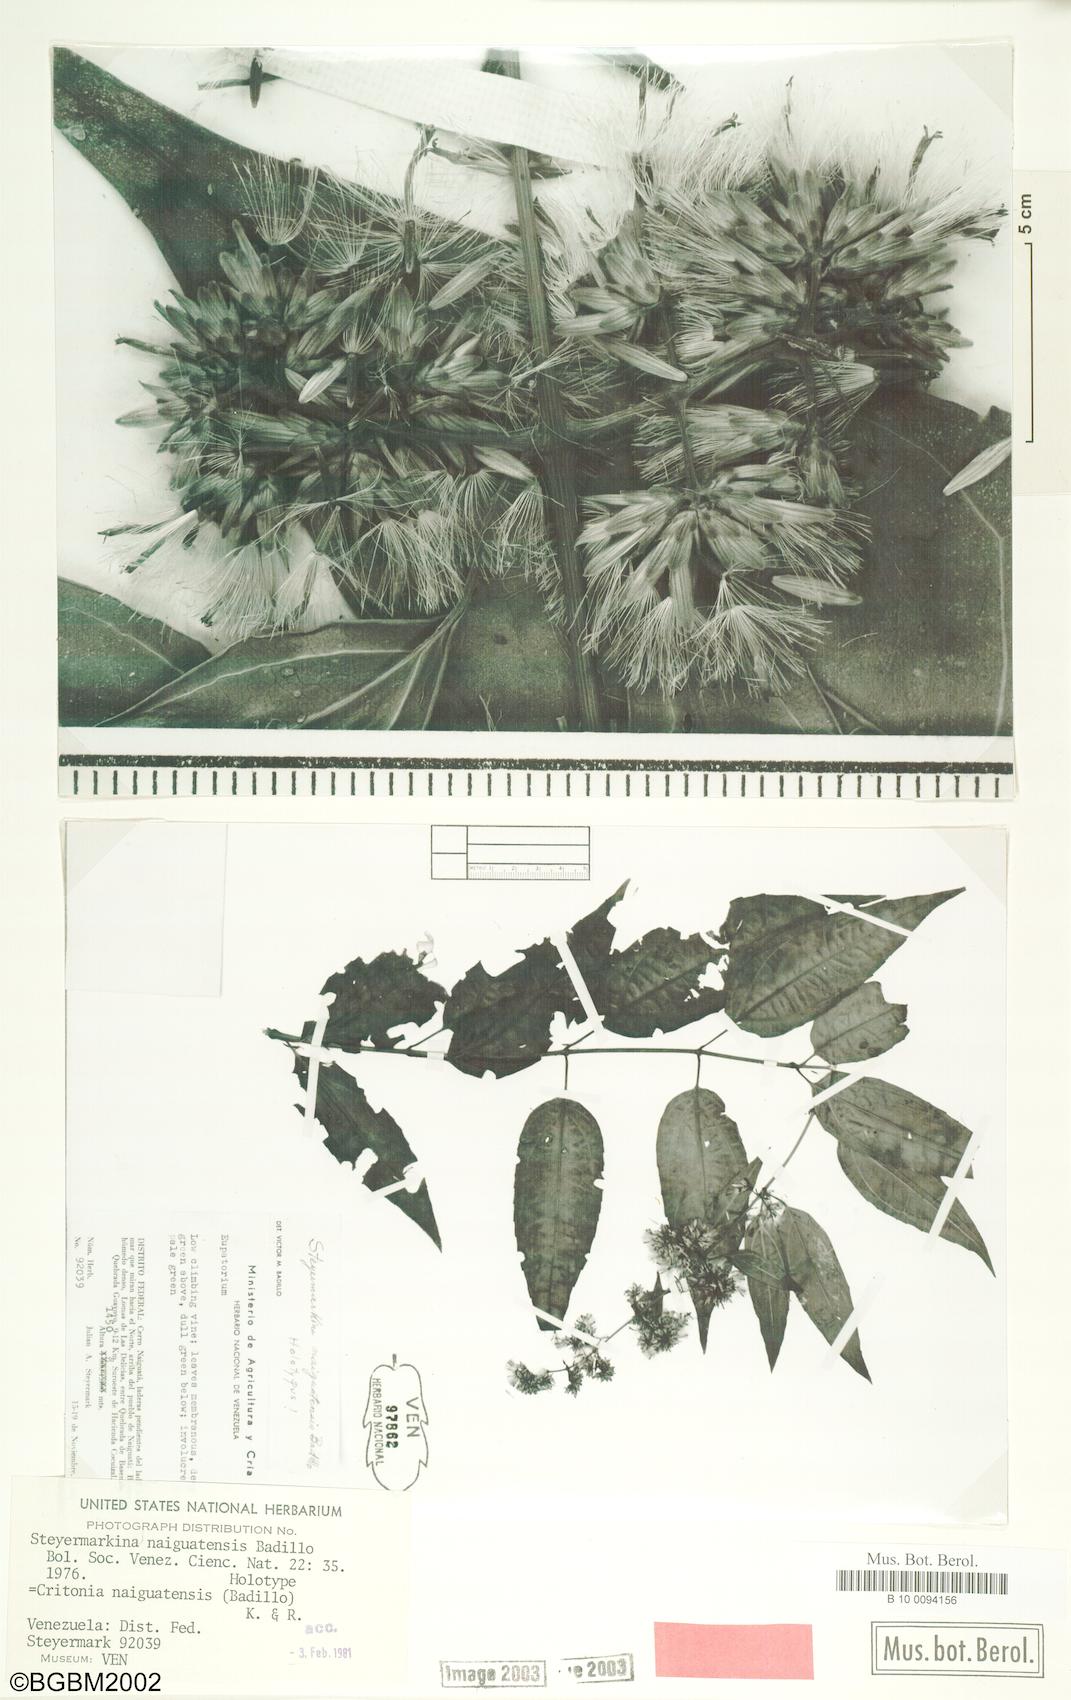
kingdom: Plantae
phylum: Tracheophyta
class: Magnoliopsida
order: Asterales
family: Asteraceae
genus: Critonia
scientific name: Critonia naiguatensis
